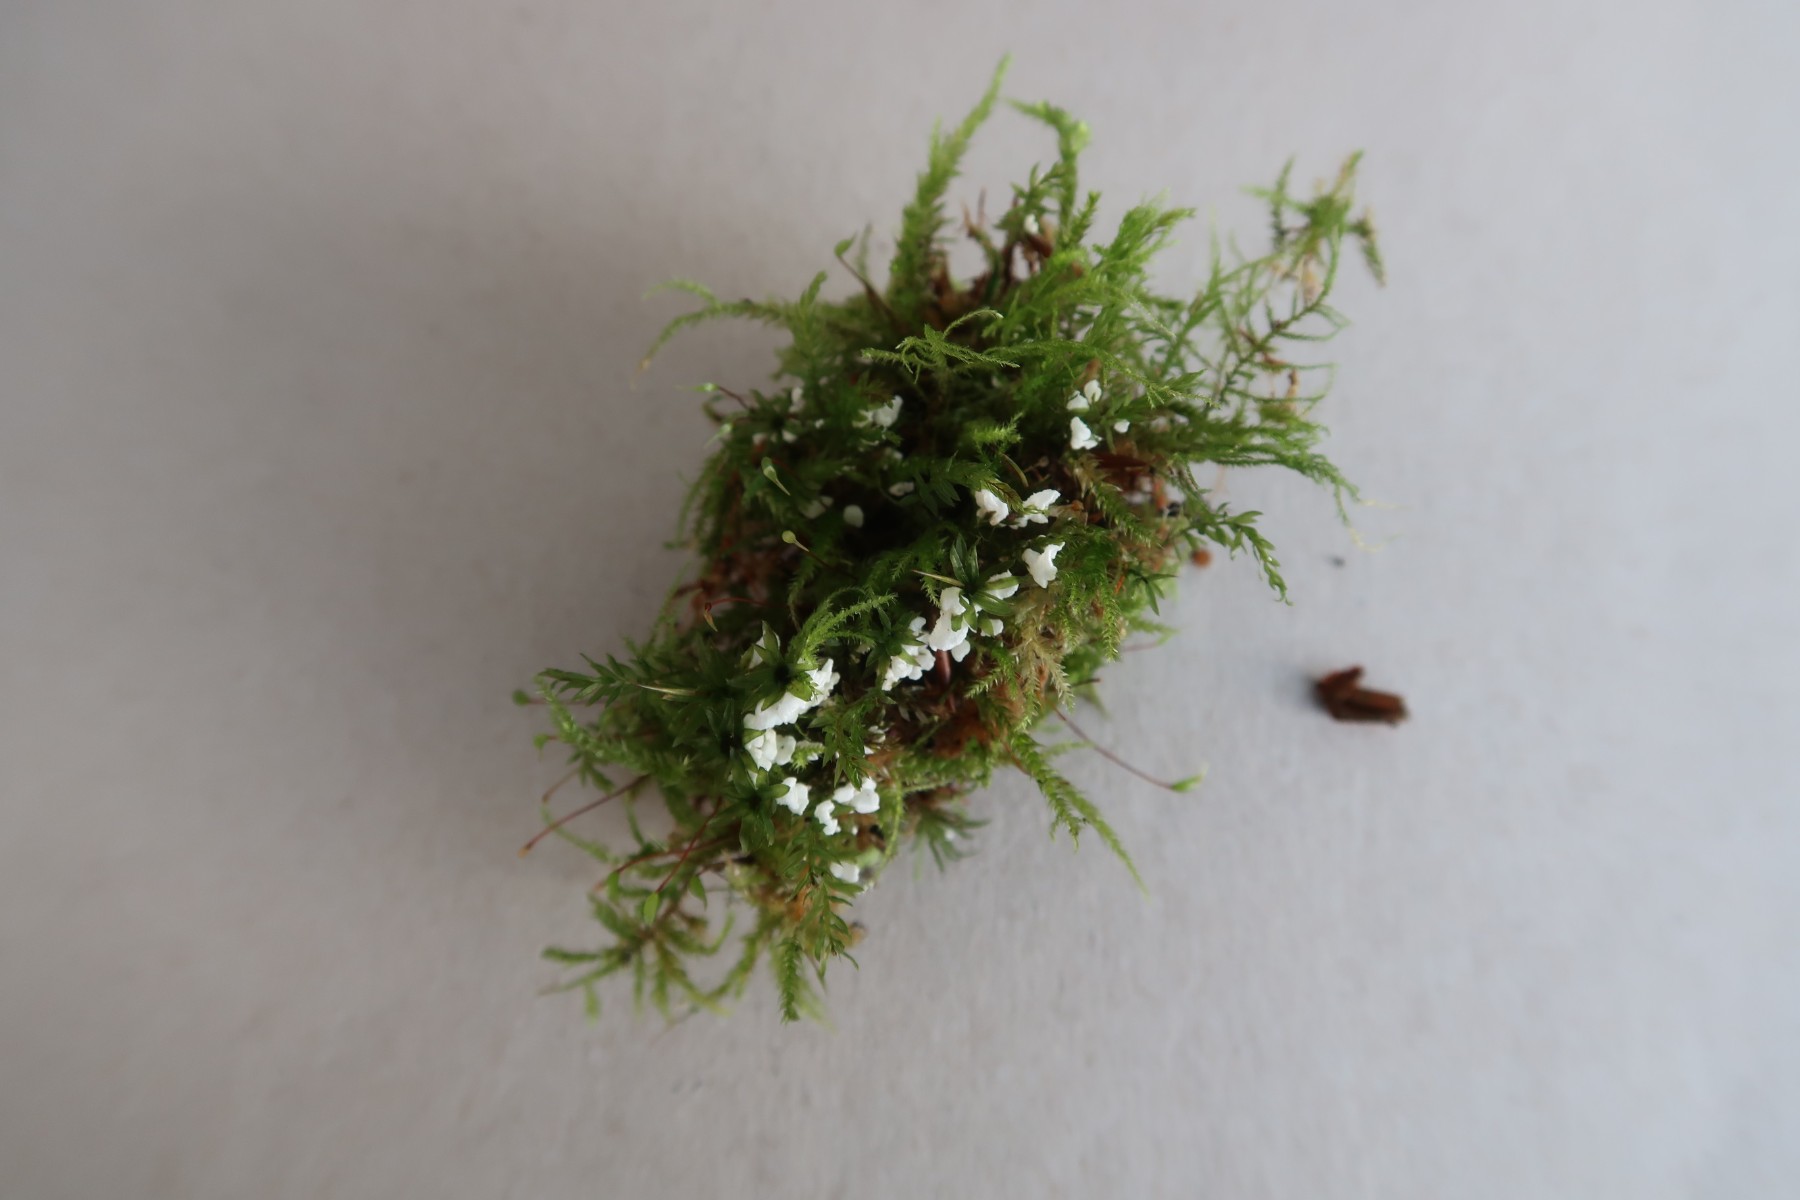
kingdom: Fungi
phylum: Basidiomycota
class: Agaricomycetes
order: Agaricales
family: Tricholomataceae
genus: Rimbachia
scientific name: Rimbachia arachnoidea
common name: Almindelig mosskål
